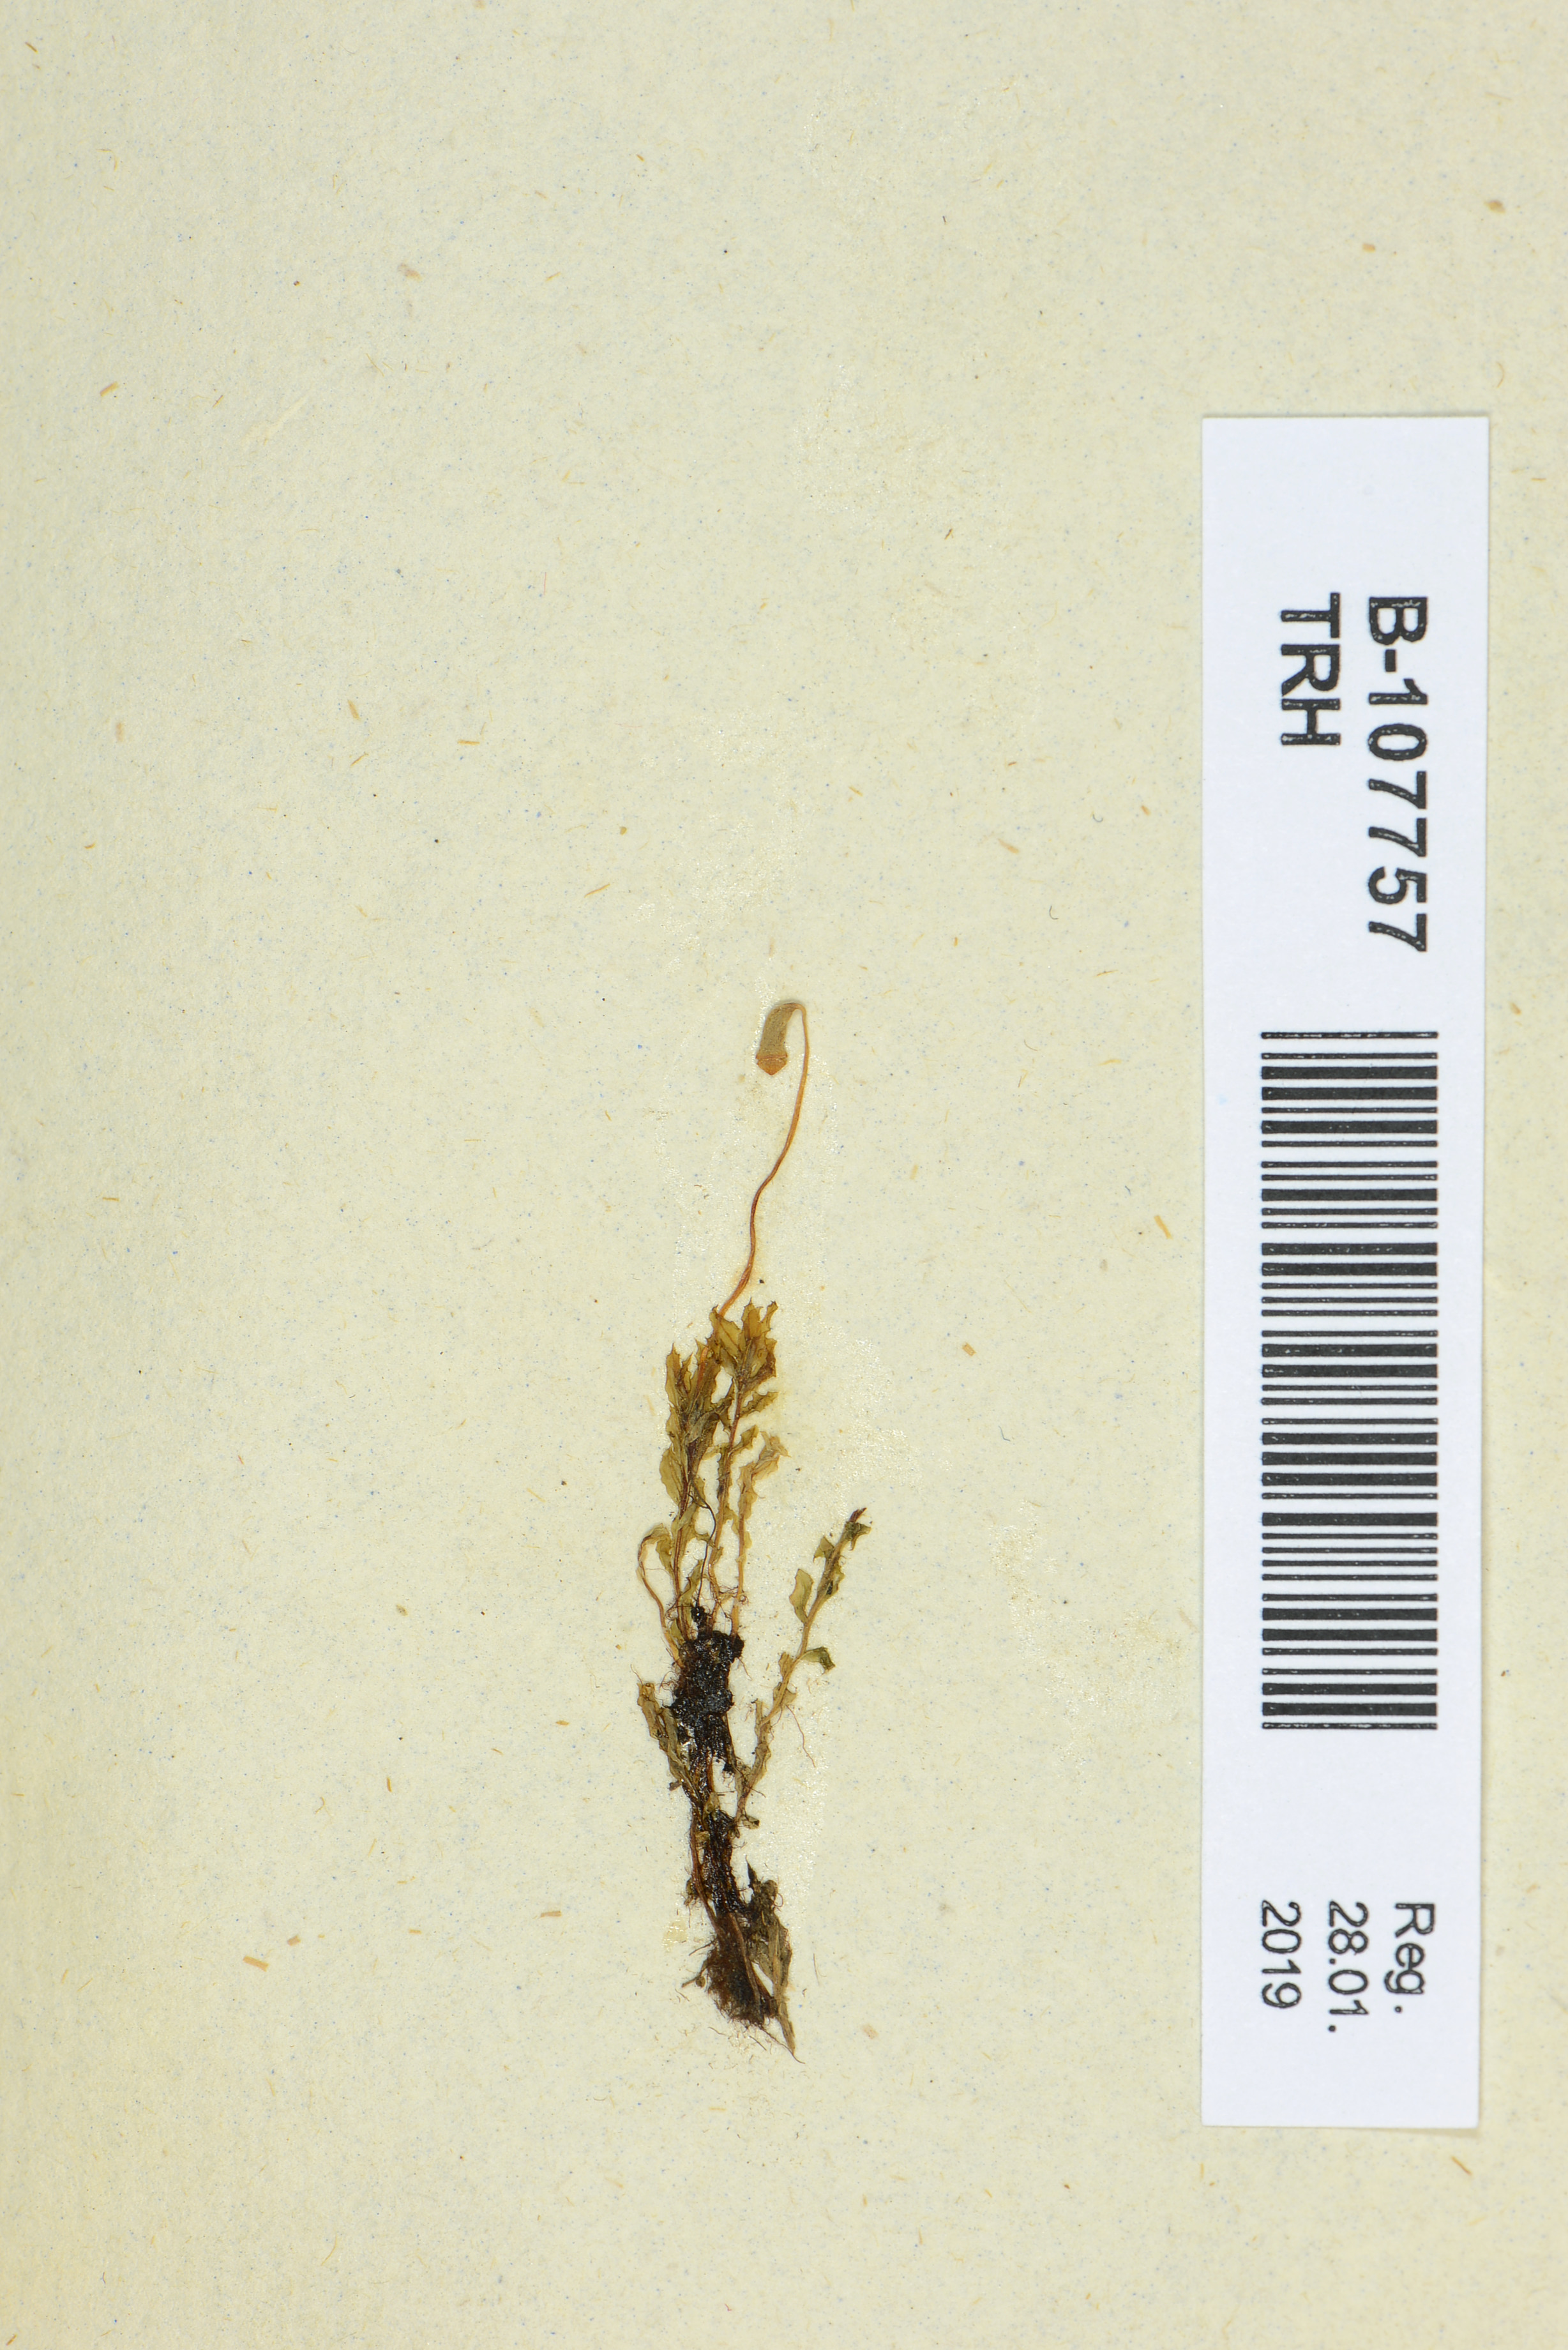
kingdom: Plantae
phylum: Bryophyta
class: Bryopsida
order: Bryales
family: Mniaceae
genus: Plagiomnium
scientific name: Plagiomnium affine
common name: Many-fruited thyme-moss
